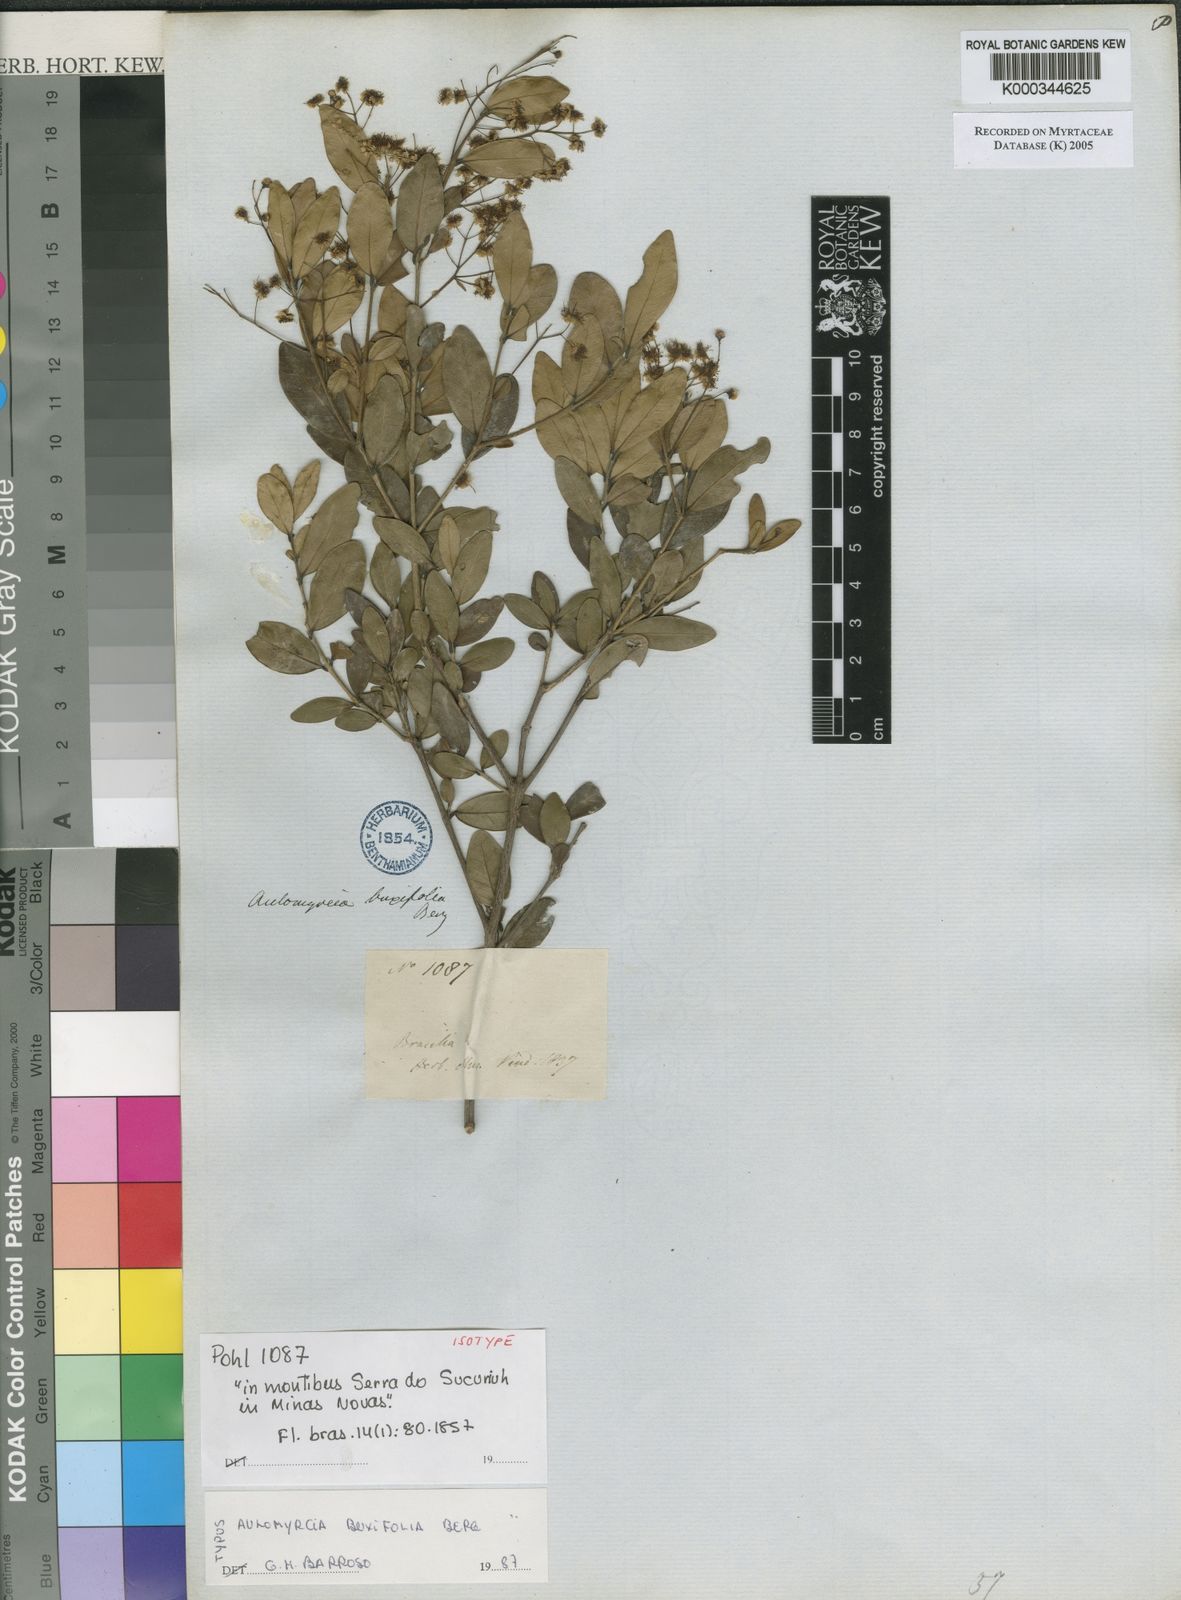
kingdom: Plantae
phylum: Tracheophyta
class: Magnoliopsida
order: Myrtales
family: Myrtaceae
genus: Myrcia
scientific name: Myrcia guianensis
